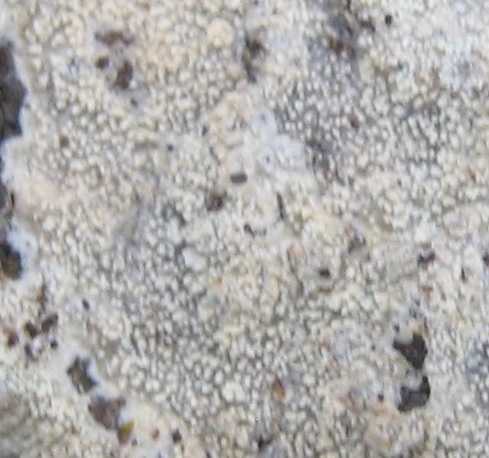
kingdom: Fungi
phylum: Basidiomycota
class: Agaricomycetes
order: Corticiales
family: Corticiaceae
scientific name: Corticiaceae
